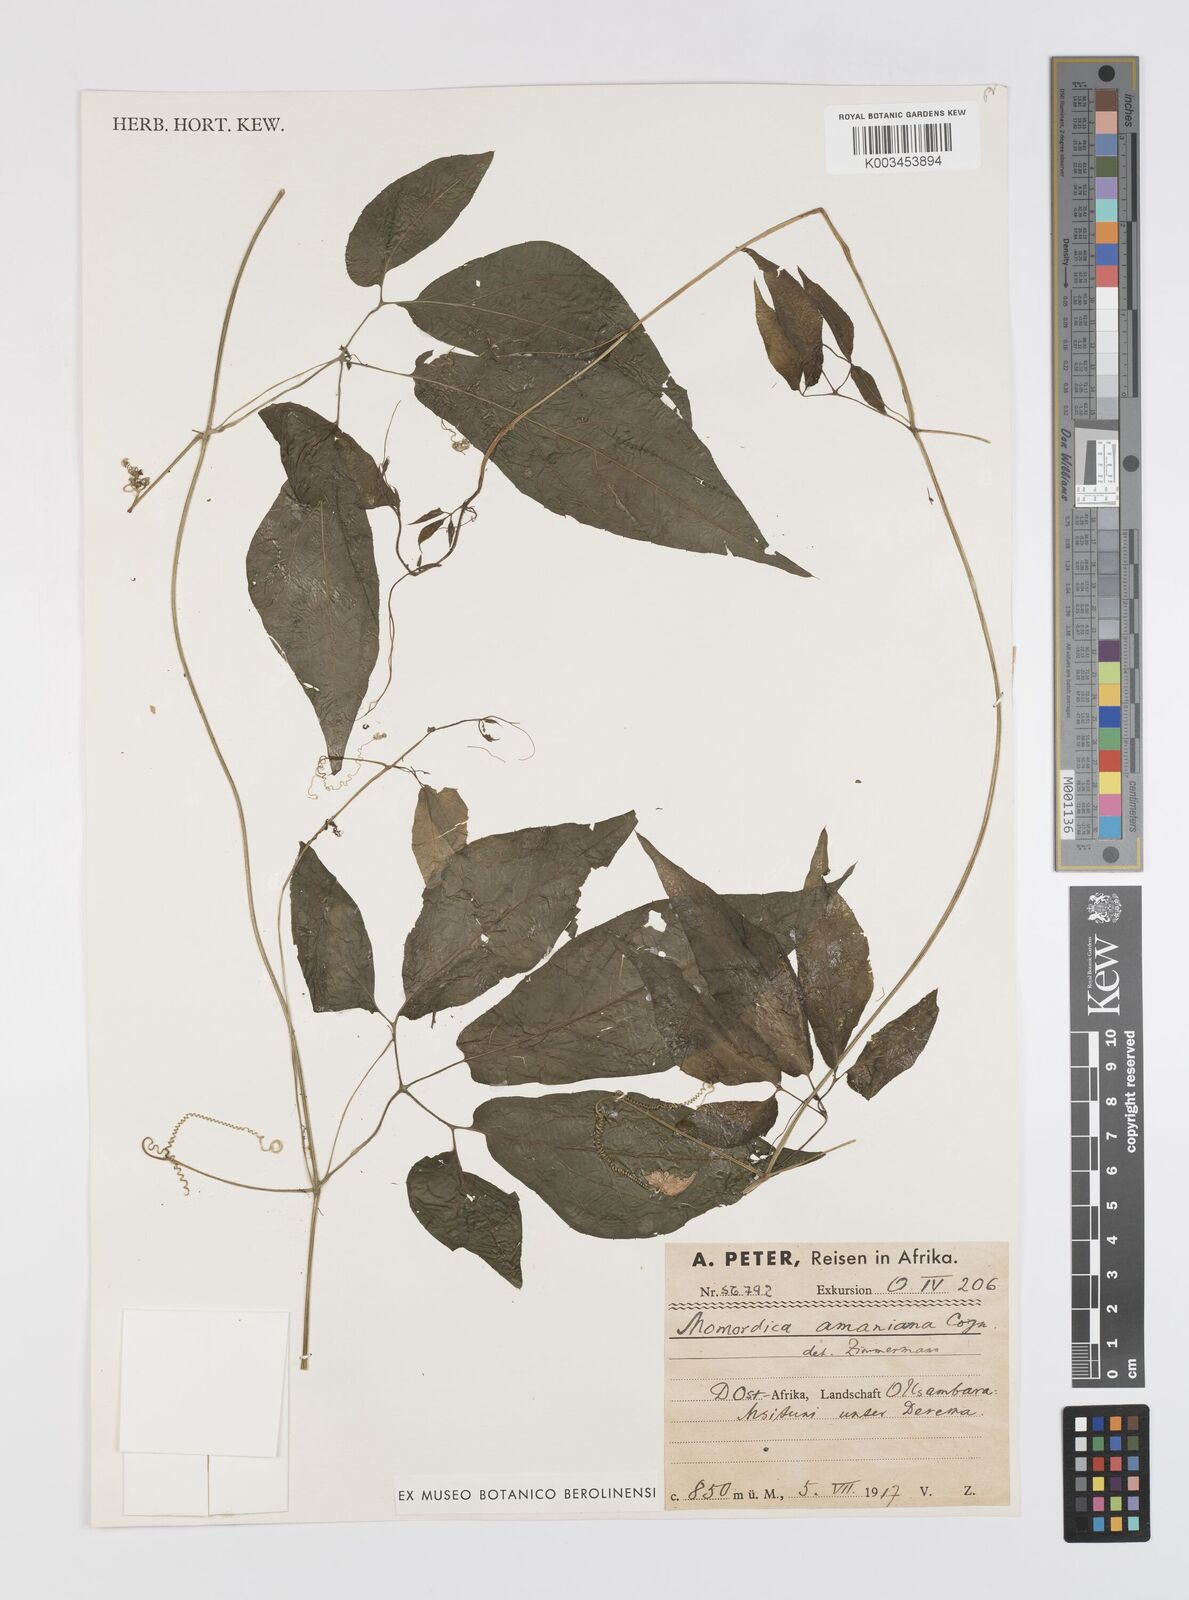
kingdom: Plantae
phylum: Tracheophyta
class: Magnoliopsida
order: Cucurbitales
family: Cucurbitaceae
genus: Momordica
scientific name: Momordica anigosantha
